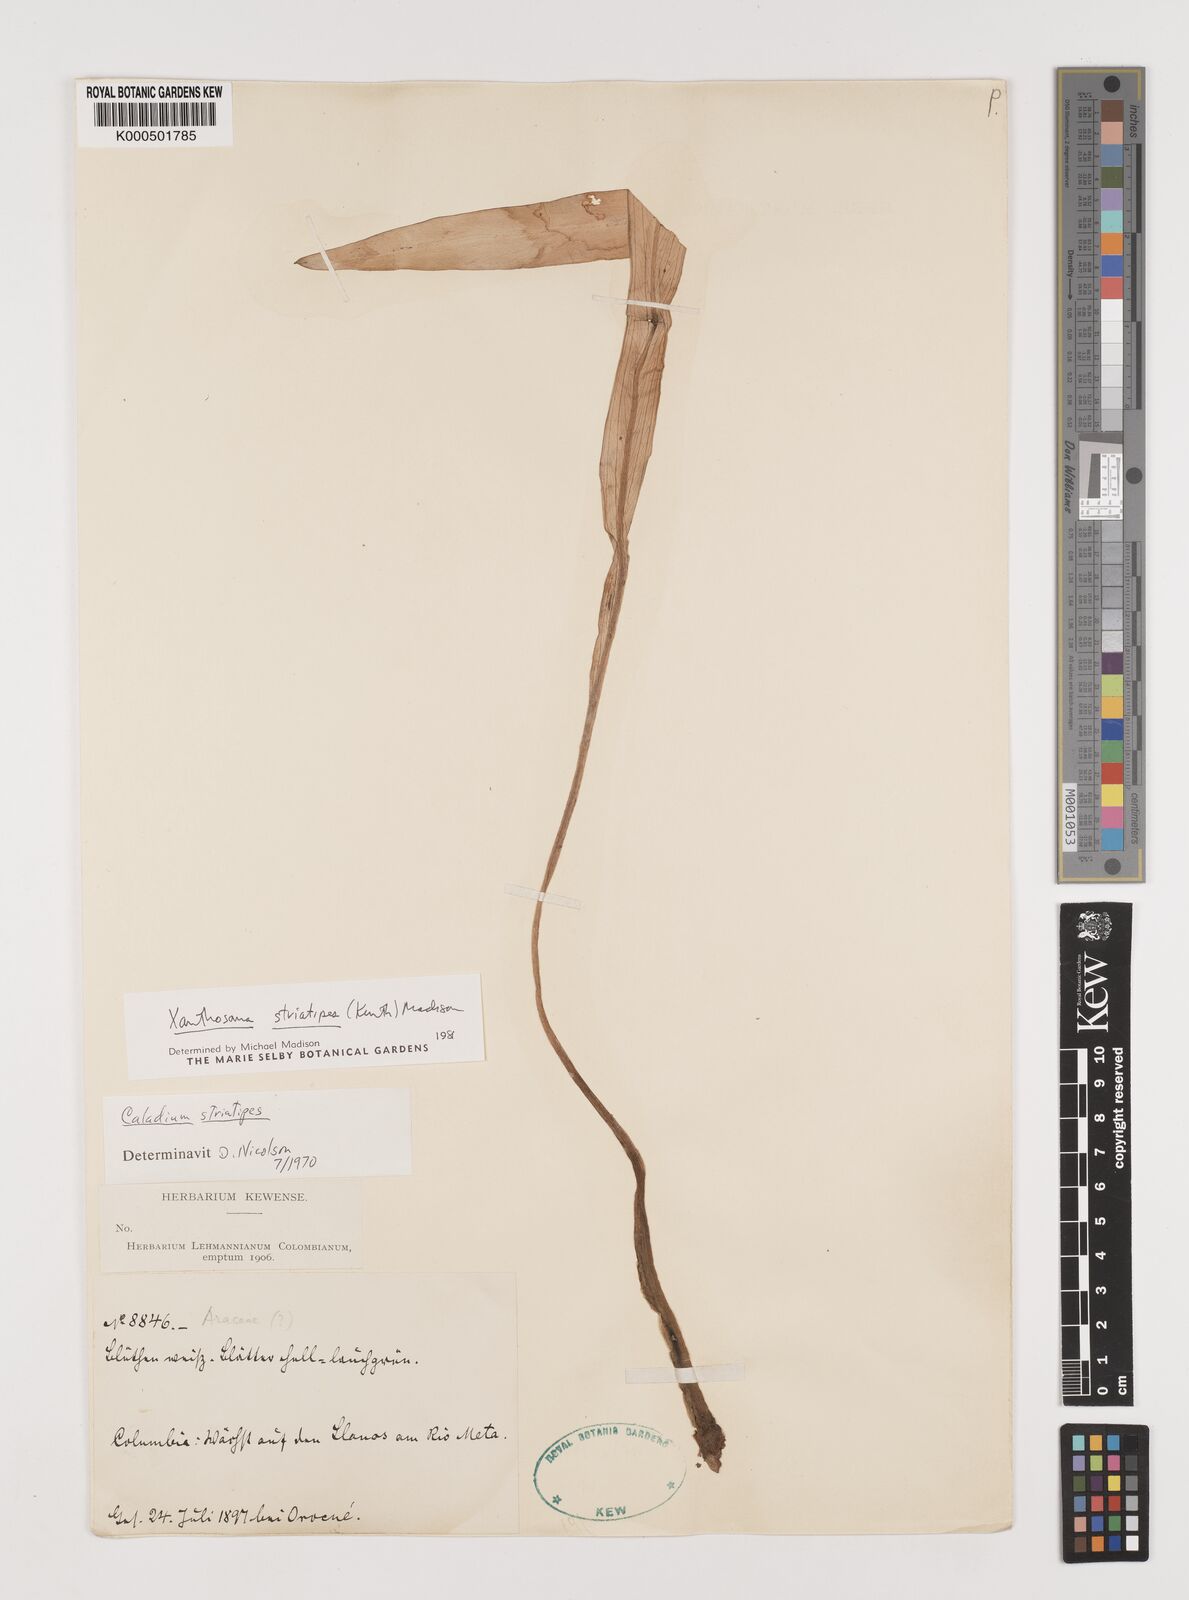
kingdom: Plantae
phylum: Tracheophyta
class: Liliopsida
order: Alismatales
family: Araceae
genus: Xanthosoma
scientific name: Xanthosoma striatipes
